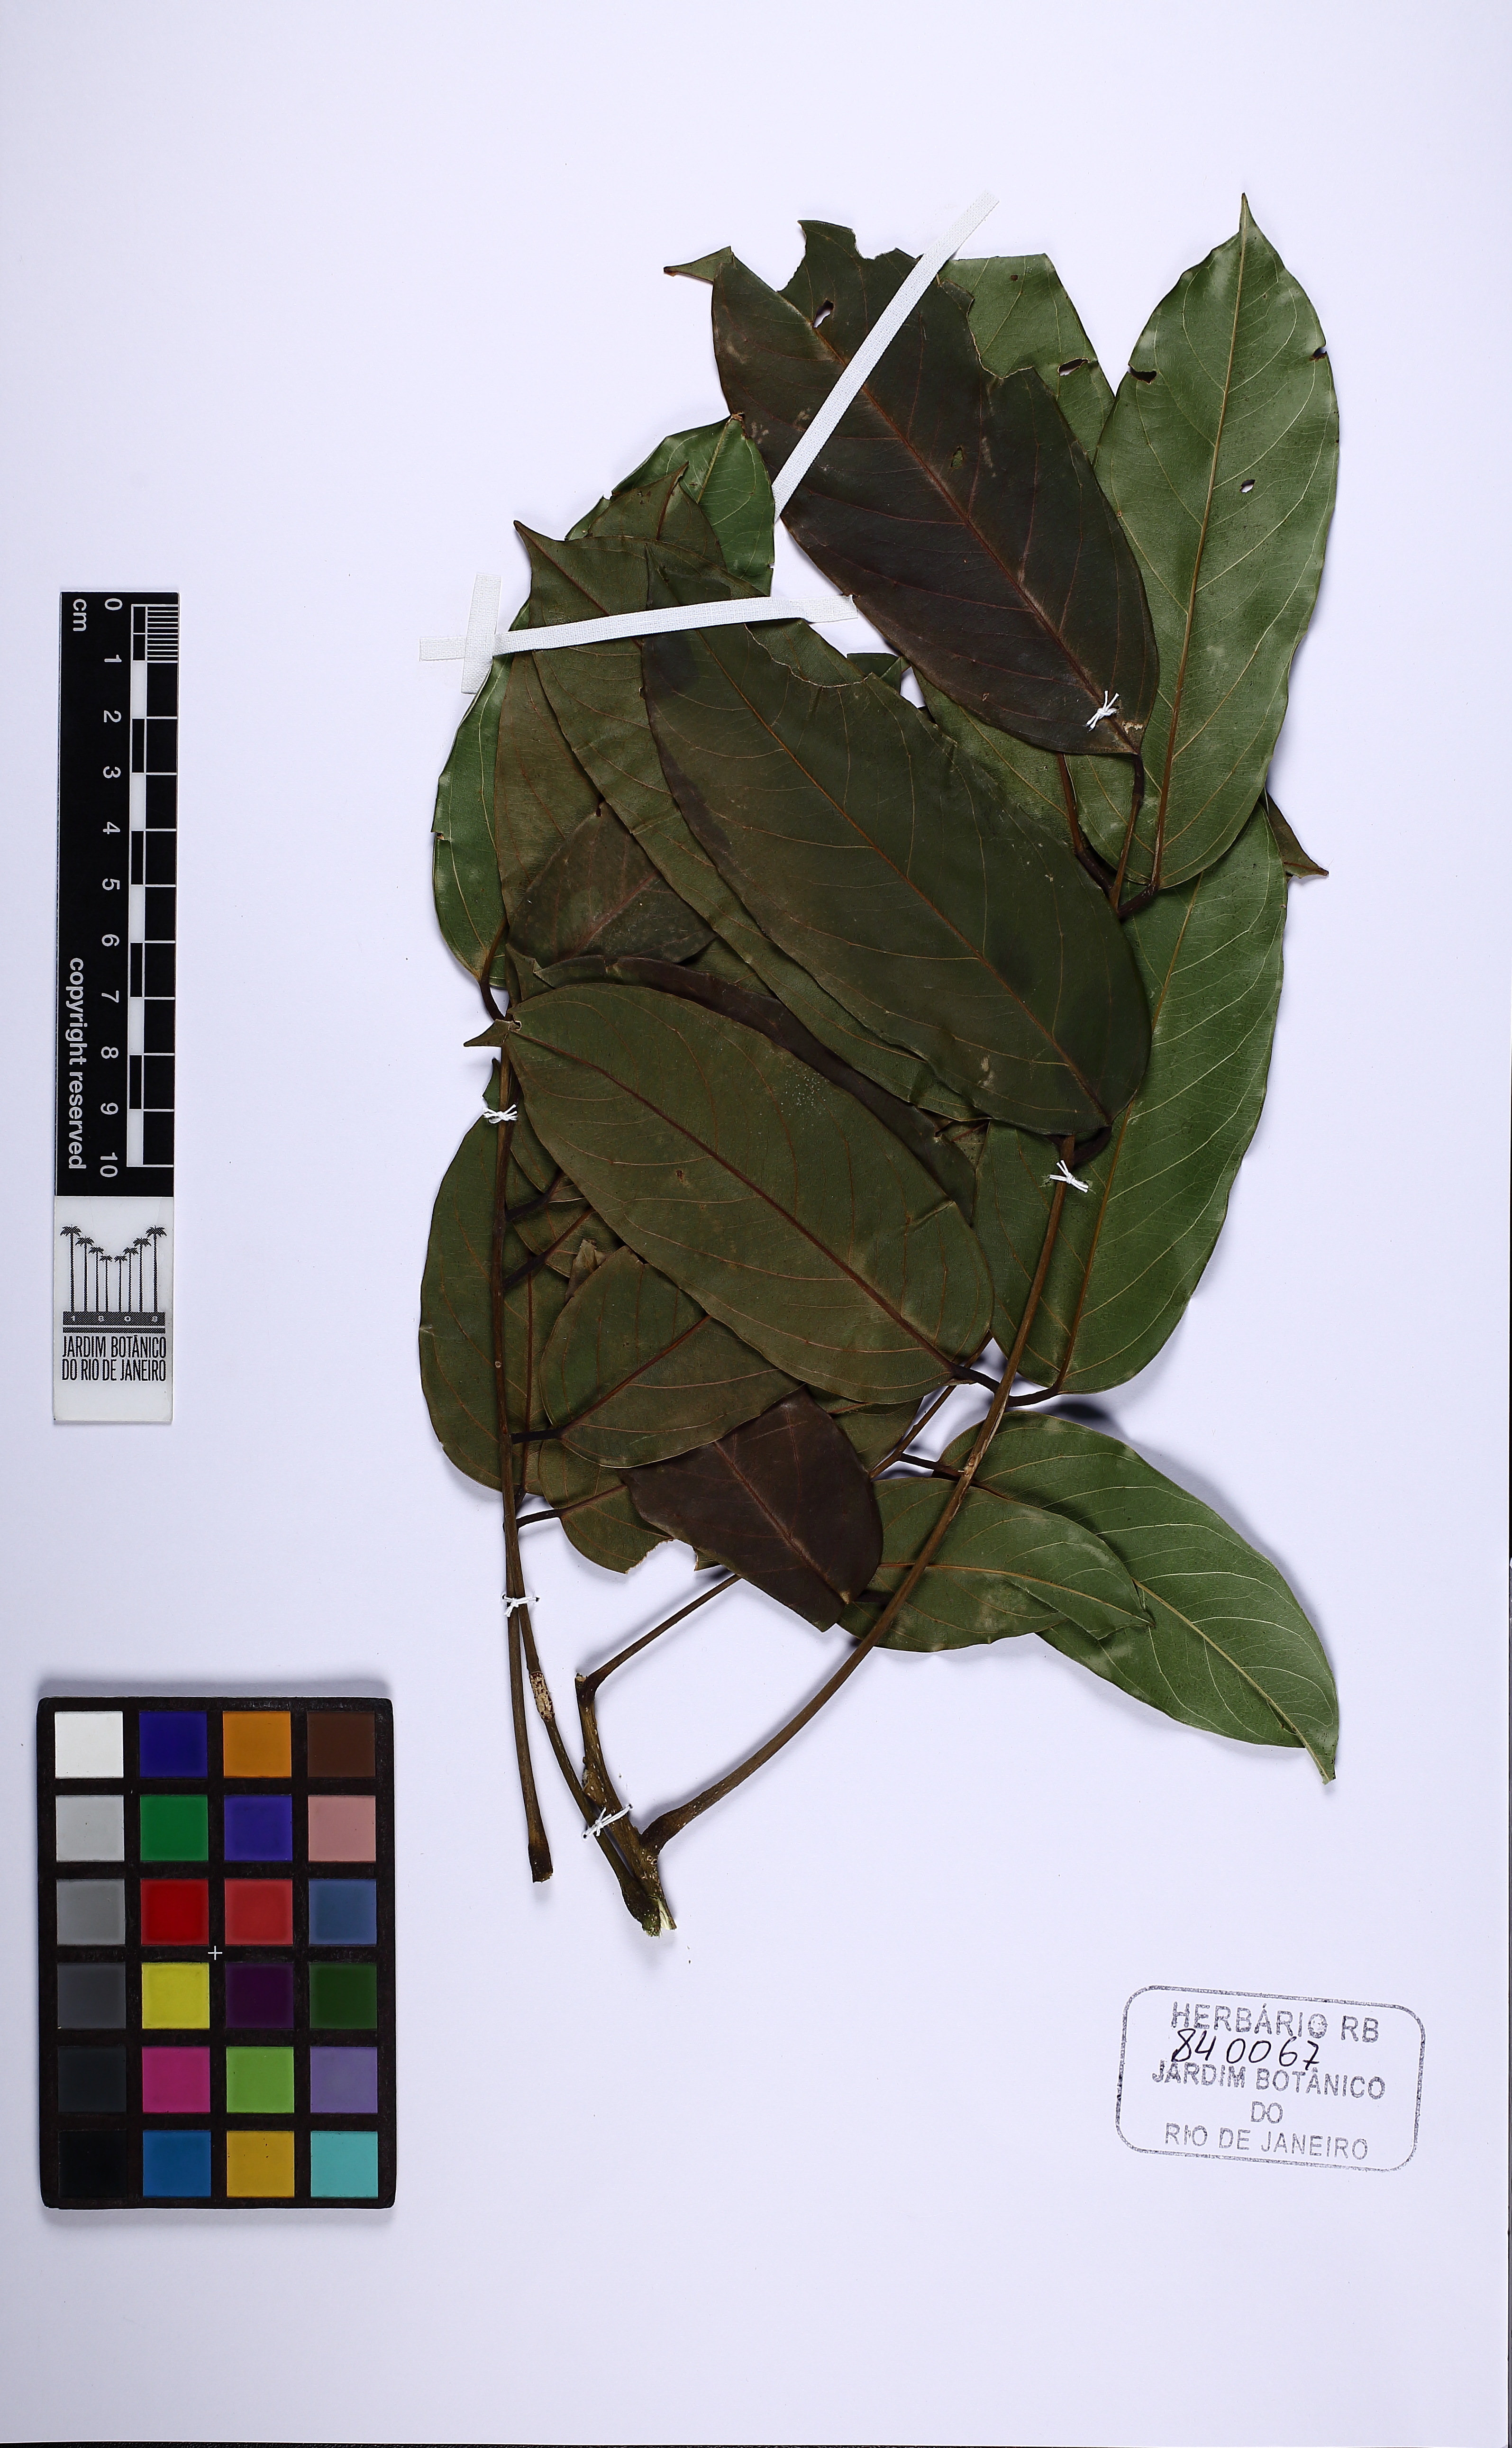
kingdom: Plantae
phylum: Tracheophyta
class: Magnoliopsida
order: Fabales
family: Fabaceae
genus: Alexa
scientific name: Alexa grandiflora
